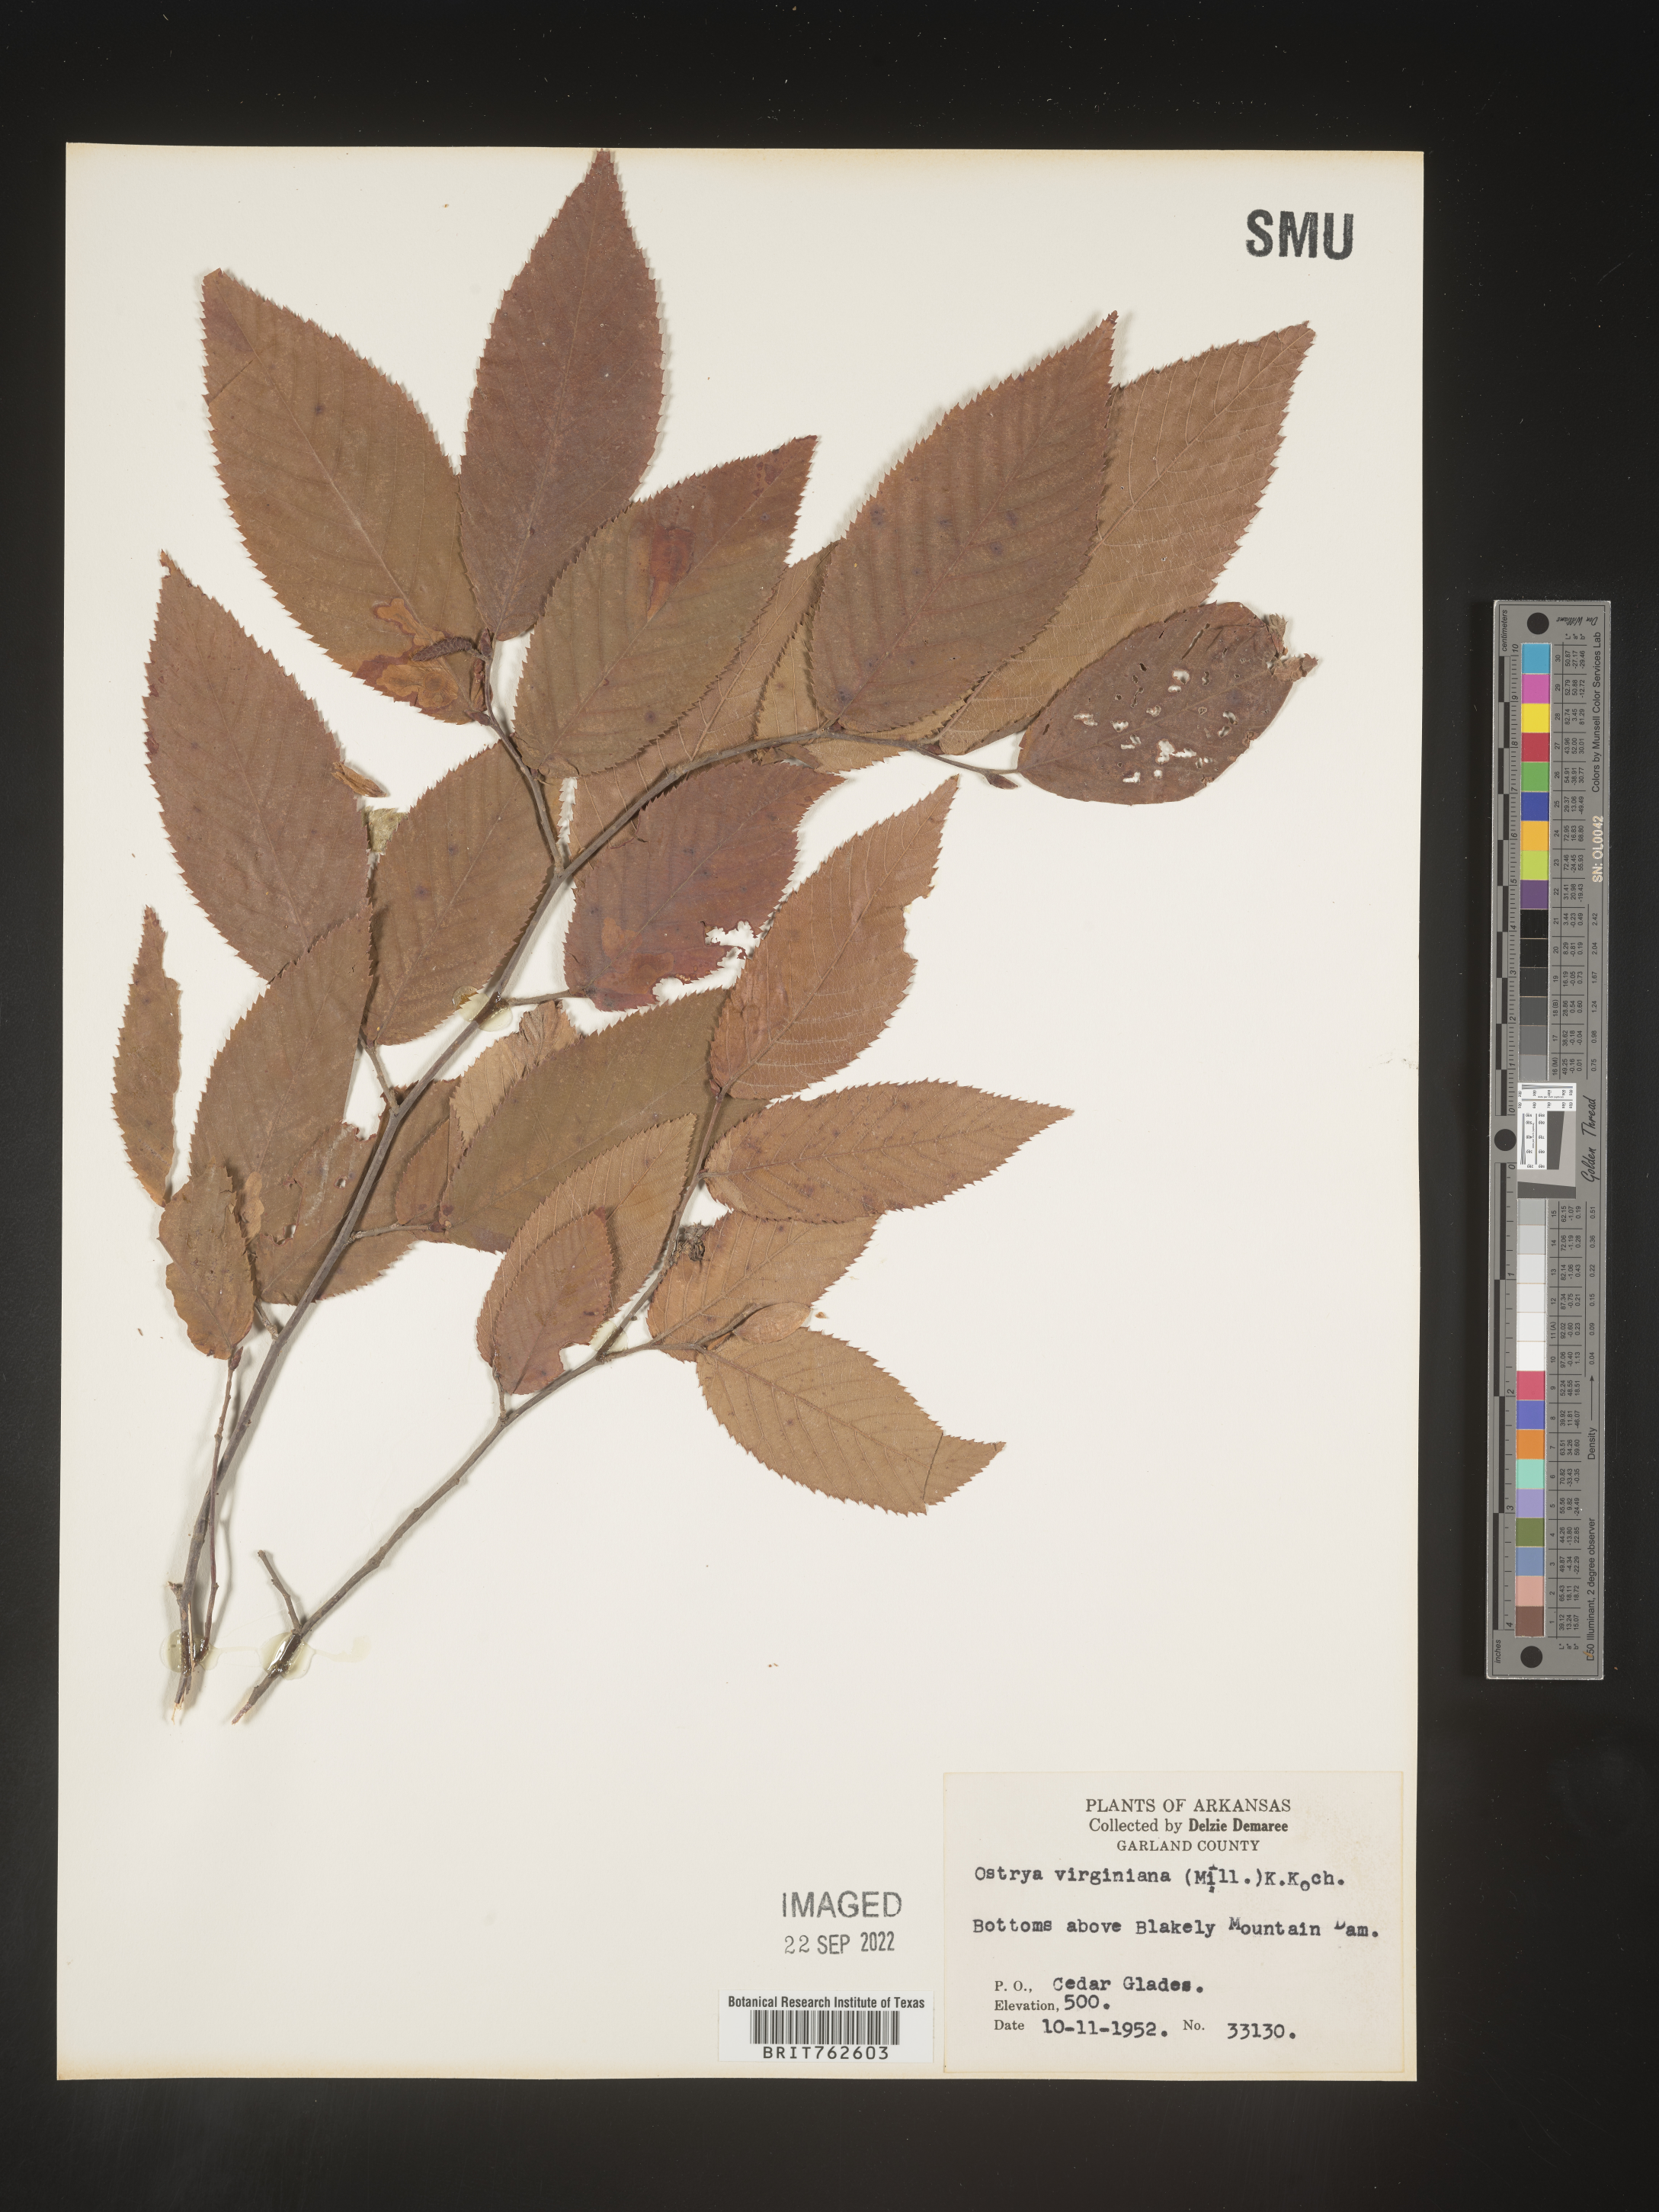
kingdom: Plantae
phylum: Tracheophyta
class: Magnoliopsida
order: Fagales
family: Betulaceae
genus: Ostrya
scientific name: Ostrya virginiana
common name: Ironwood
